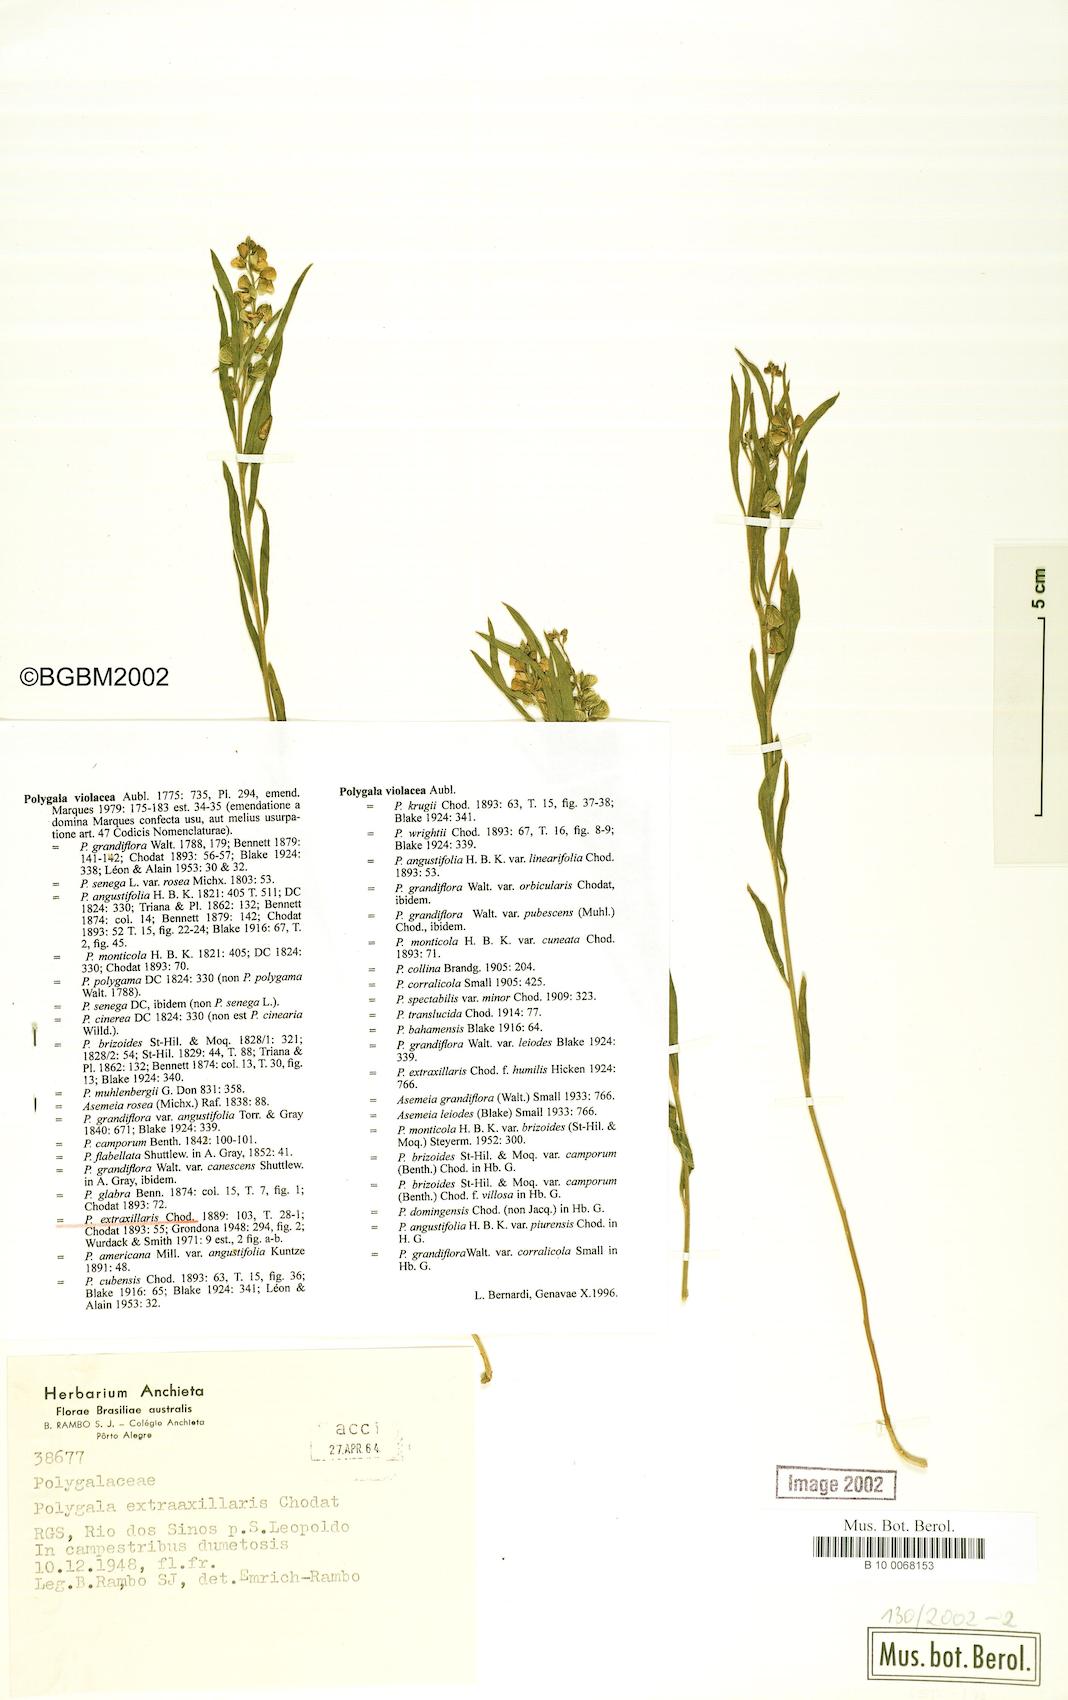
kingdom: Plantae
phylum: Tracheophyta
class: Magnoliopsida
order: Fabales
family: Polygalaceae
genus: Asemeia
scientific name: Asemeia extraaxillaris
